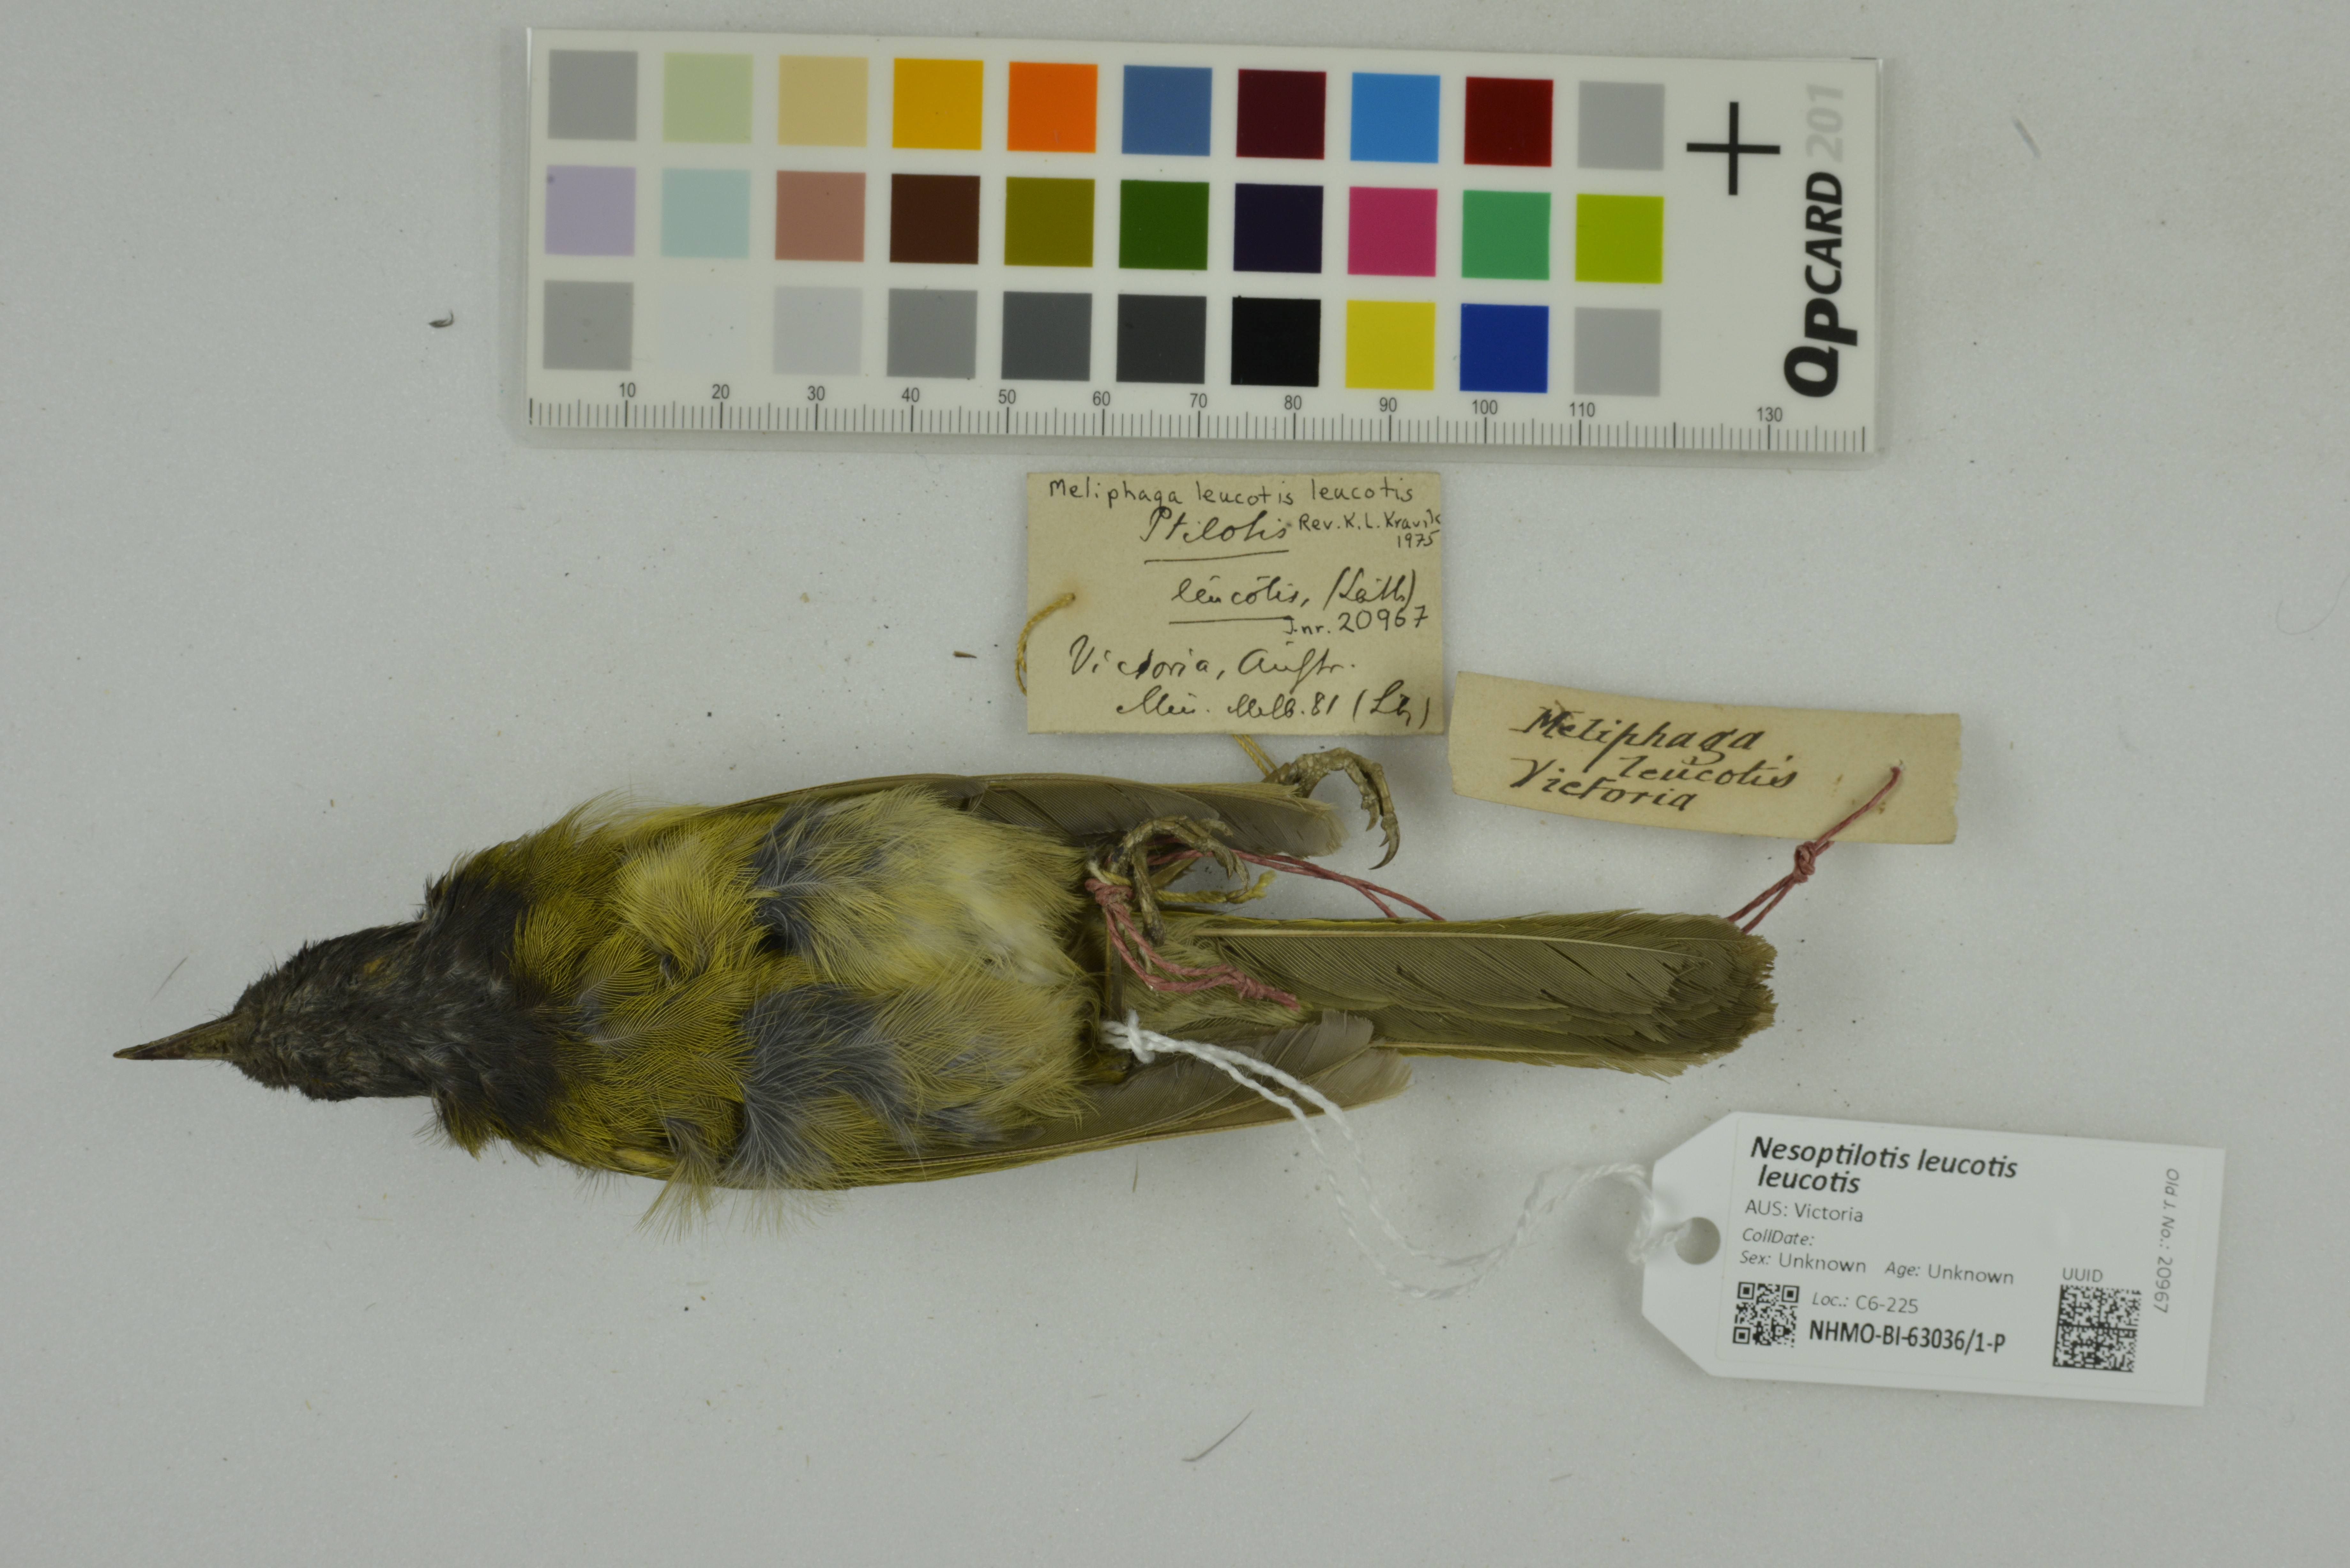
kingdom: Animalia
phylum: Chordata
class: Aves
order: Passeriformes
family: Meliphagidae
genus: Nesoptilotis
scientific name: Nesoptilotis leucotis
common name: White-eared honeyeater
